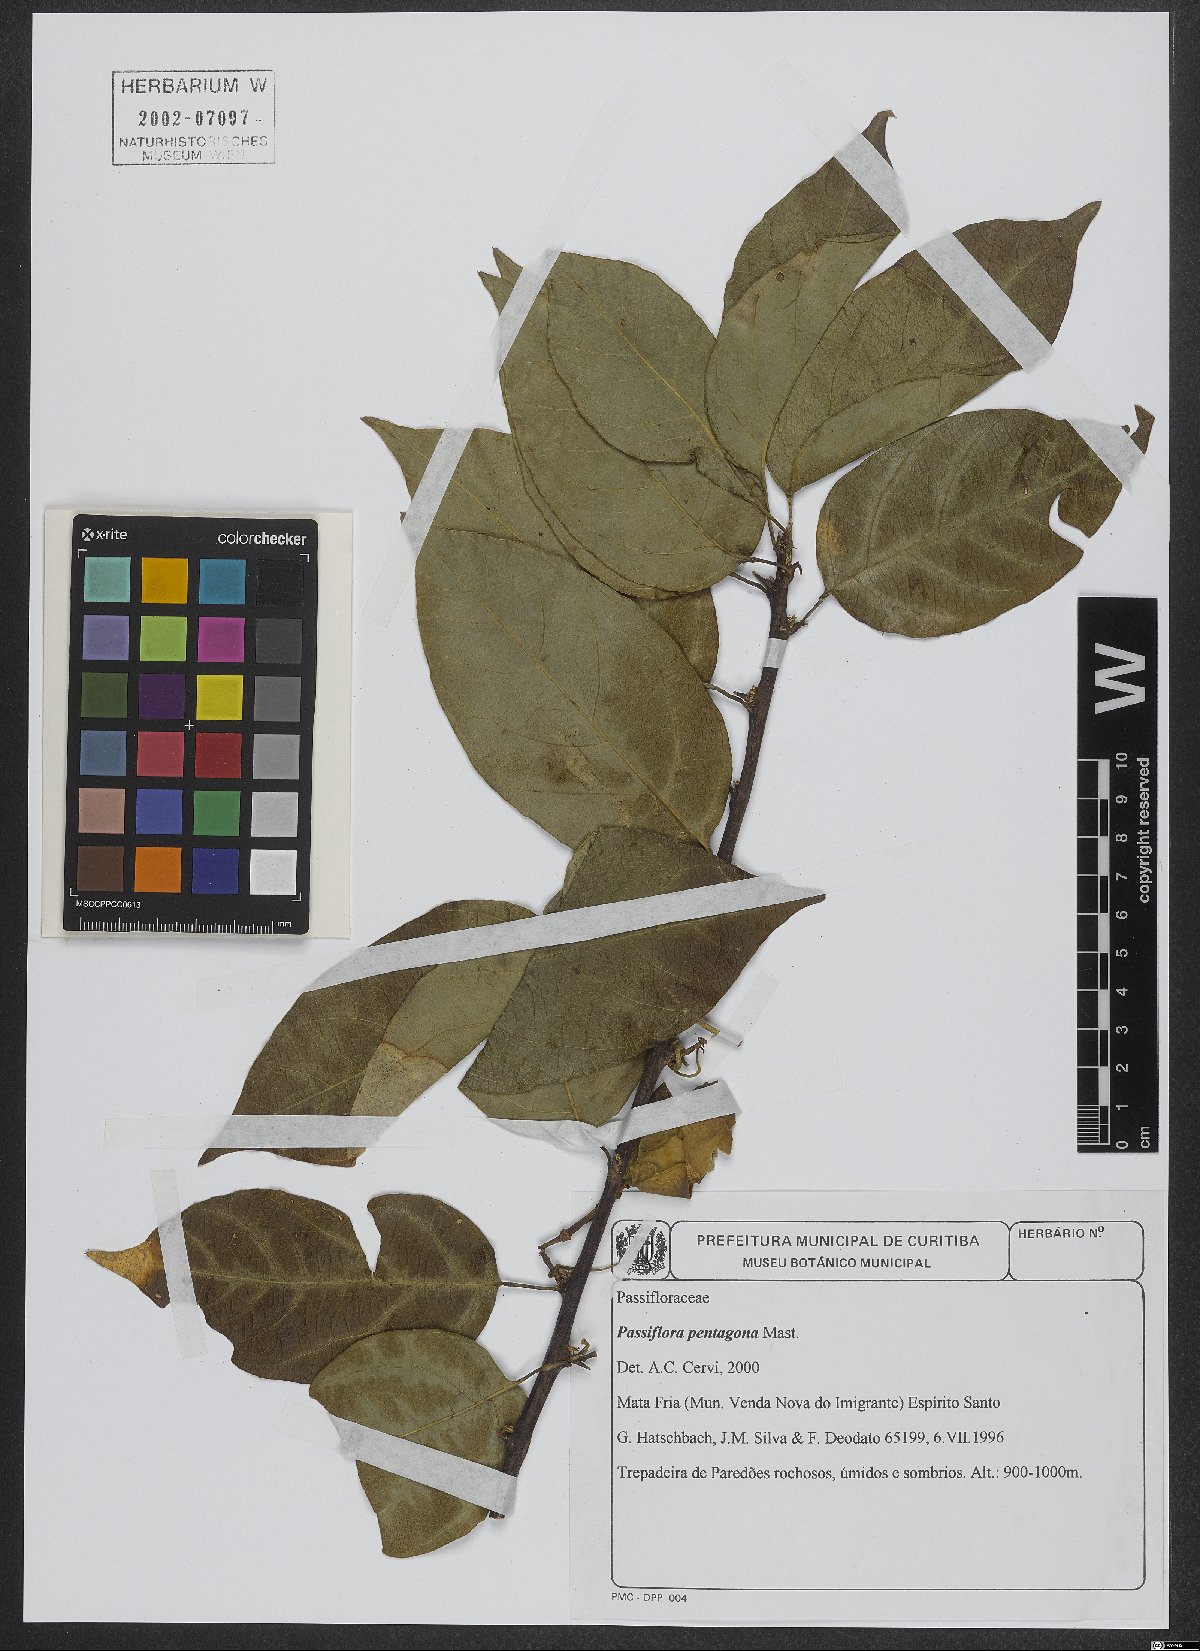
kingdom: Plantae
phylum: Tracheophyta
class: Magnoliopsida
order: Malpighiales
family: Passifloraceae
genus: Passiflora
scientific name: Passiflora pentagona
